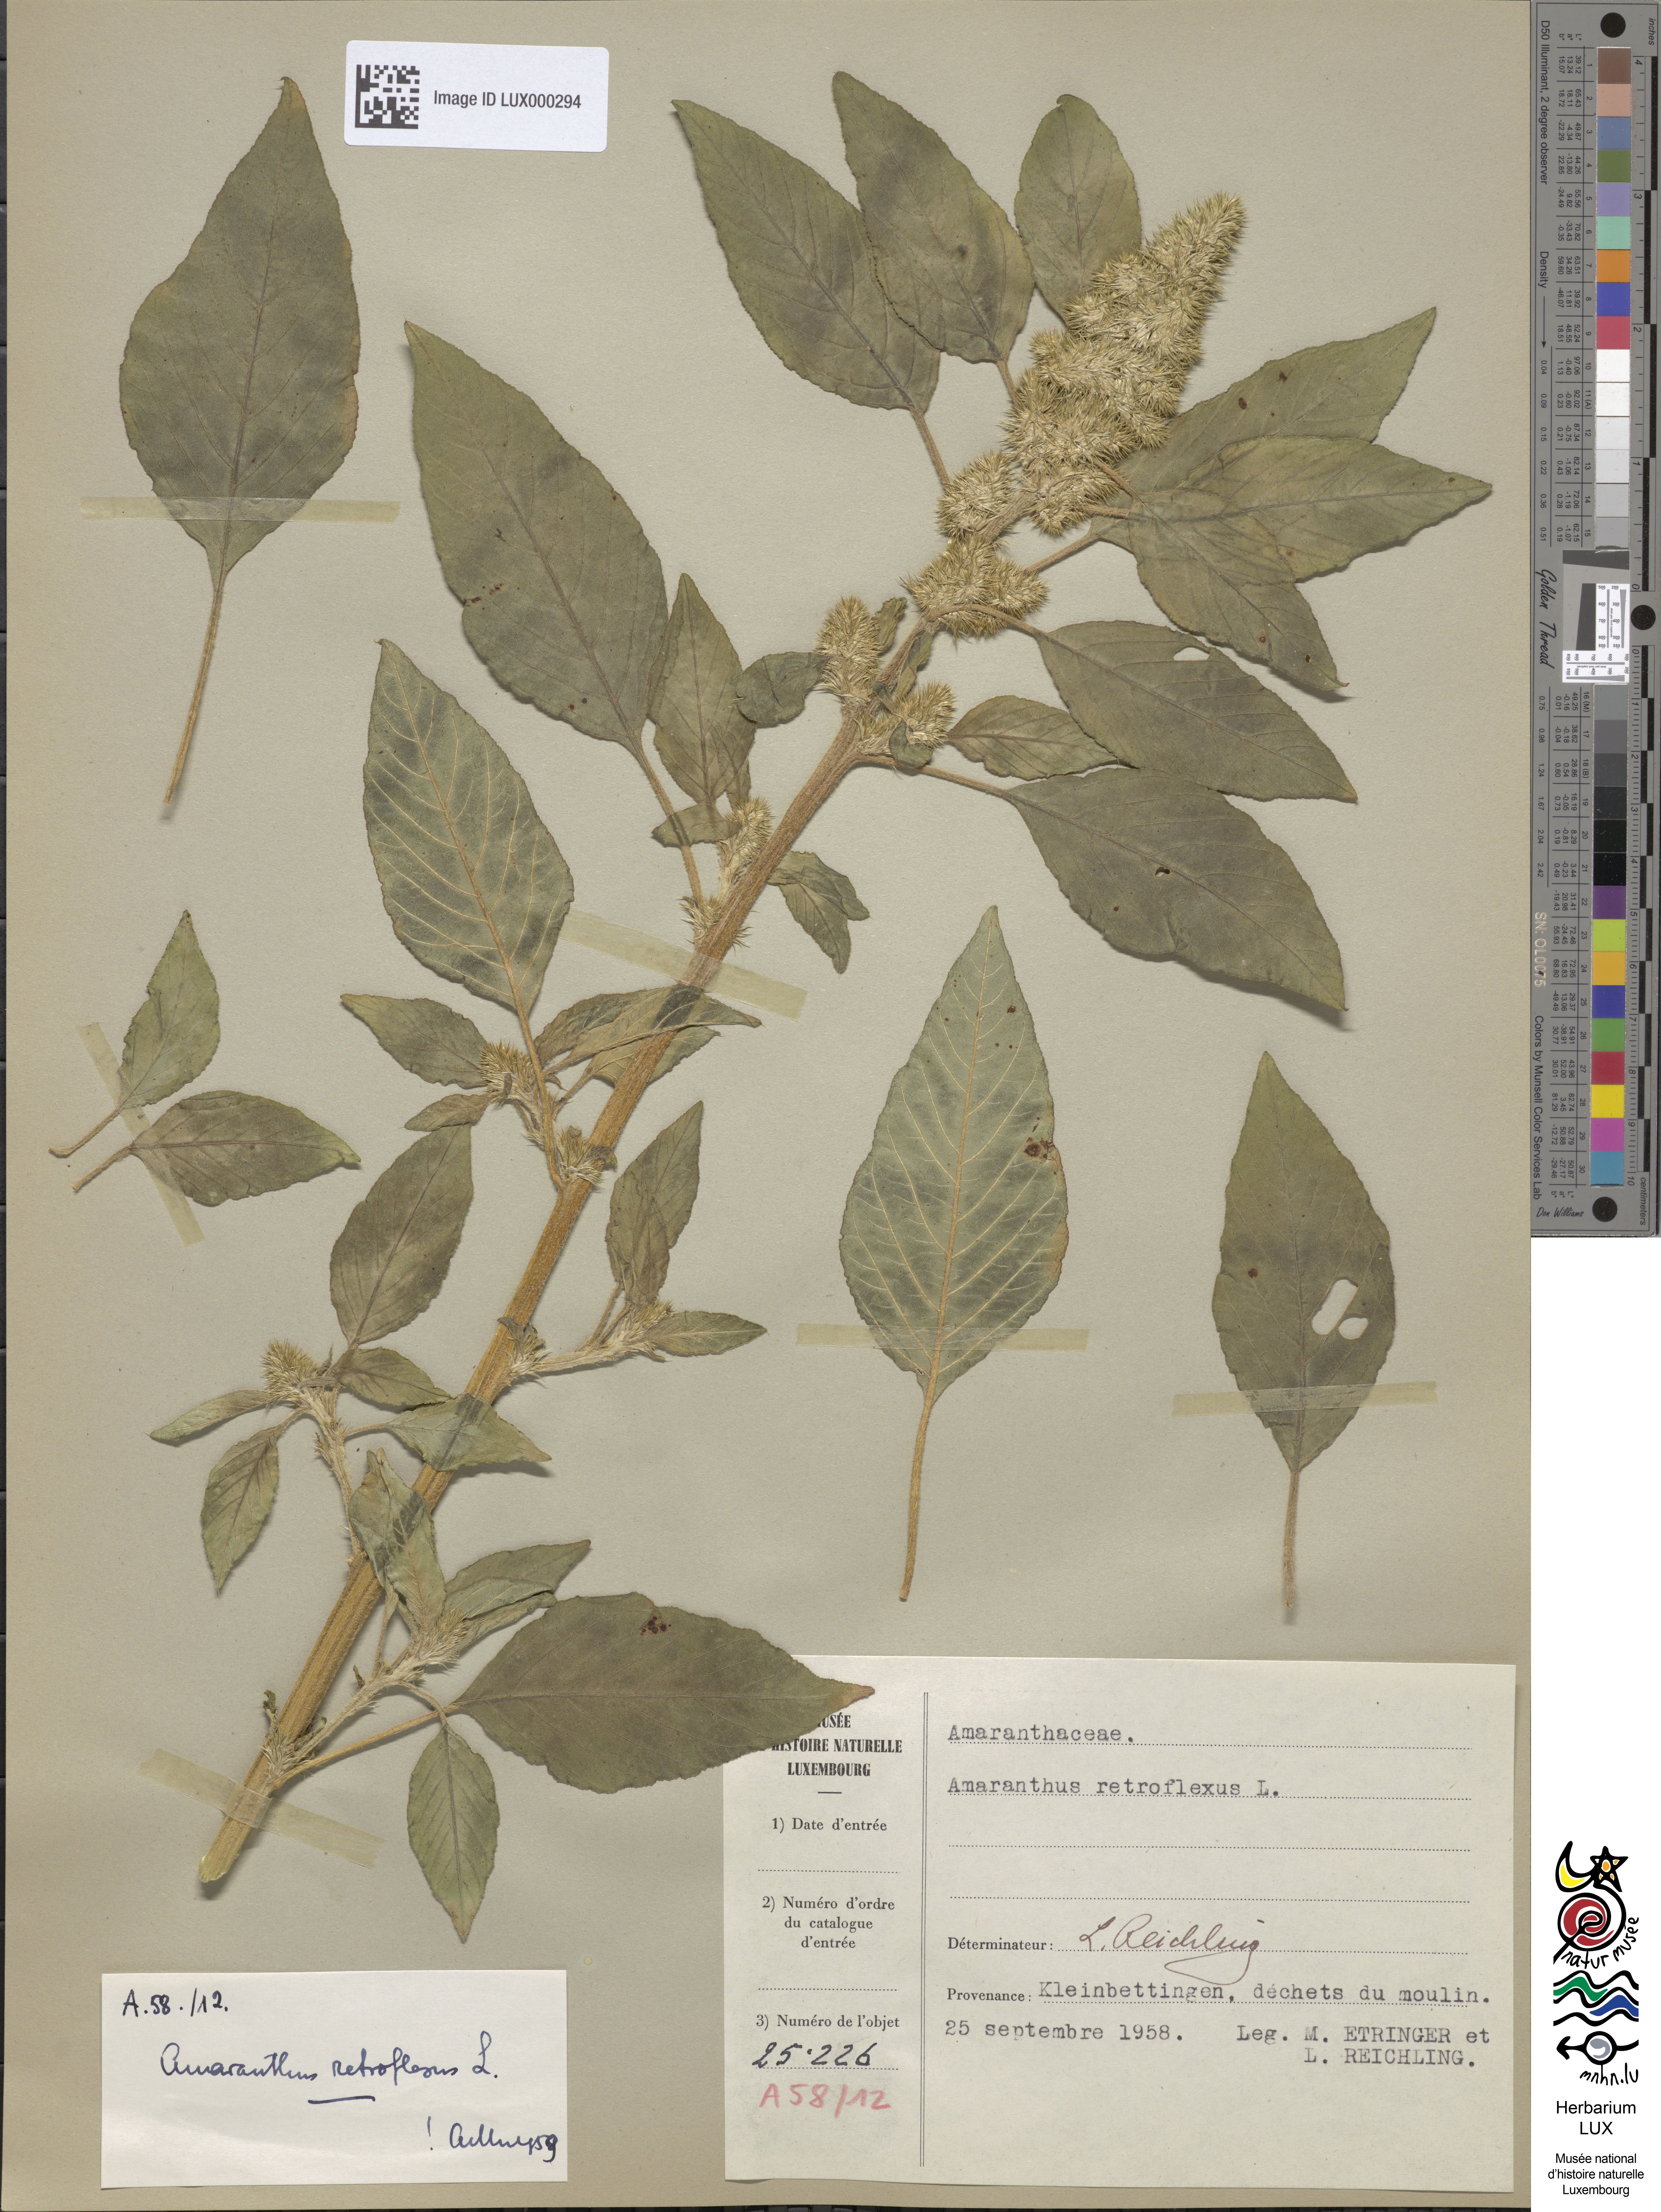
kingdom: Plantae
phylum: Tracheophyta
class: Magnoliopsida
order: Caryophyllales
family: Amaranthaceae
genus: Amaranthus
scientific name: Amaranthus retroflexus
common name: Redroot amaranth
